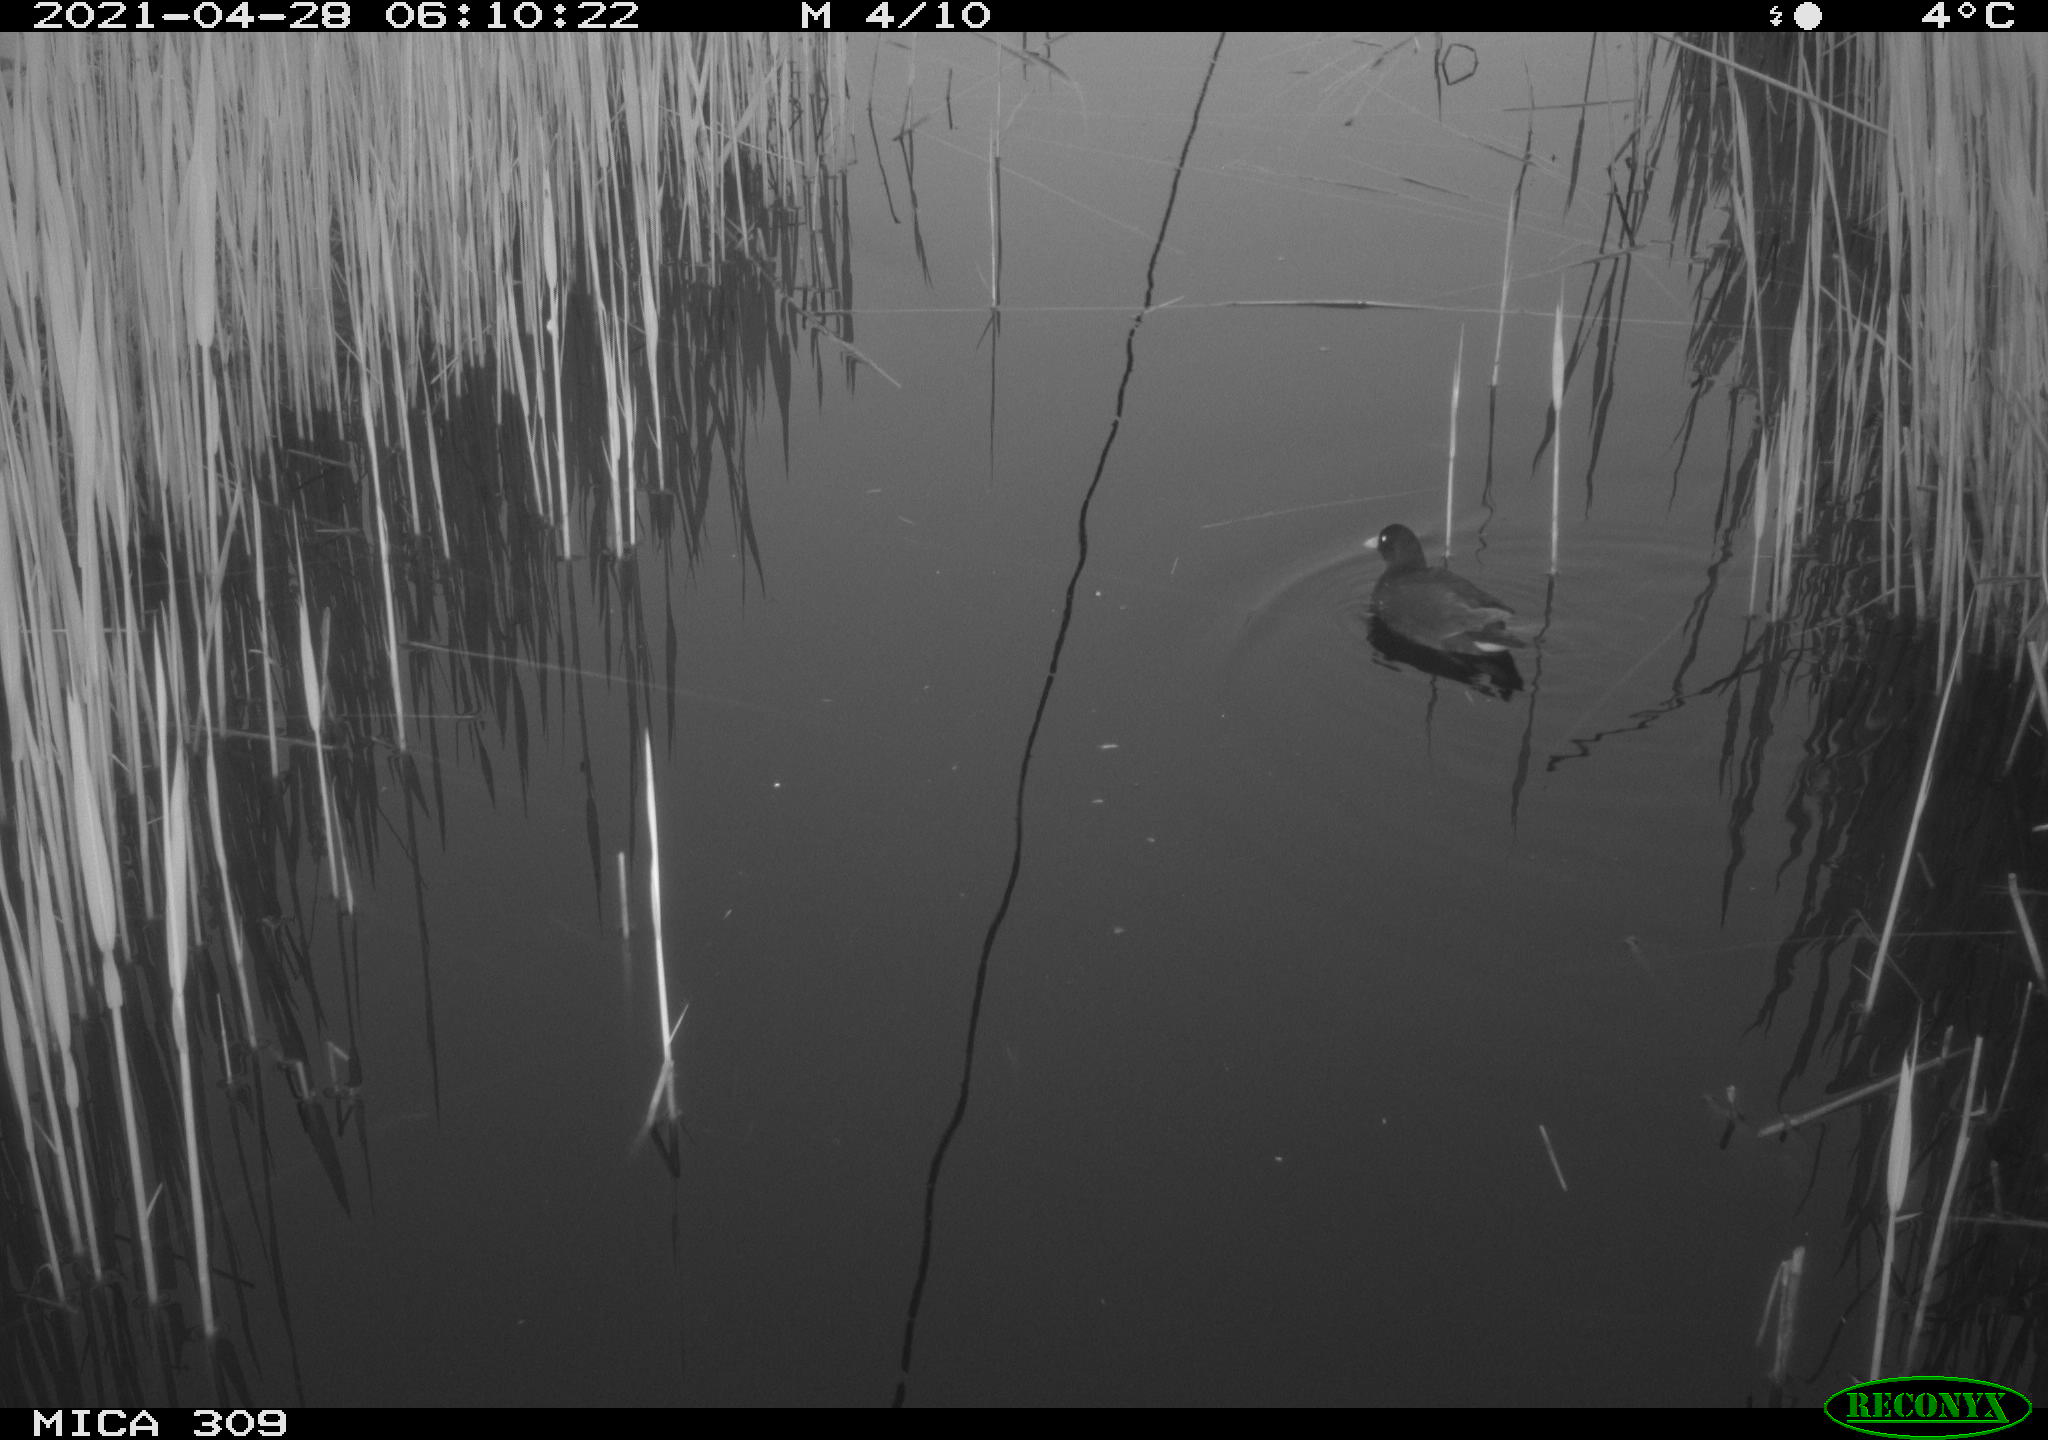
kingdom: Animalia
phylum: Chordata
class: Aves
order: Gruiformes
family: Rallidae
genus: Gallinula
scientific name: Gallinula chloropus
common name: Common moorhen
